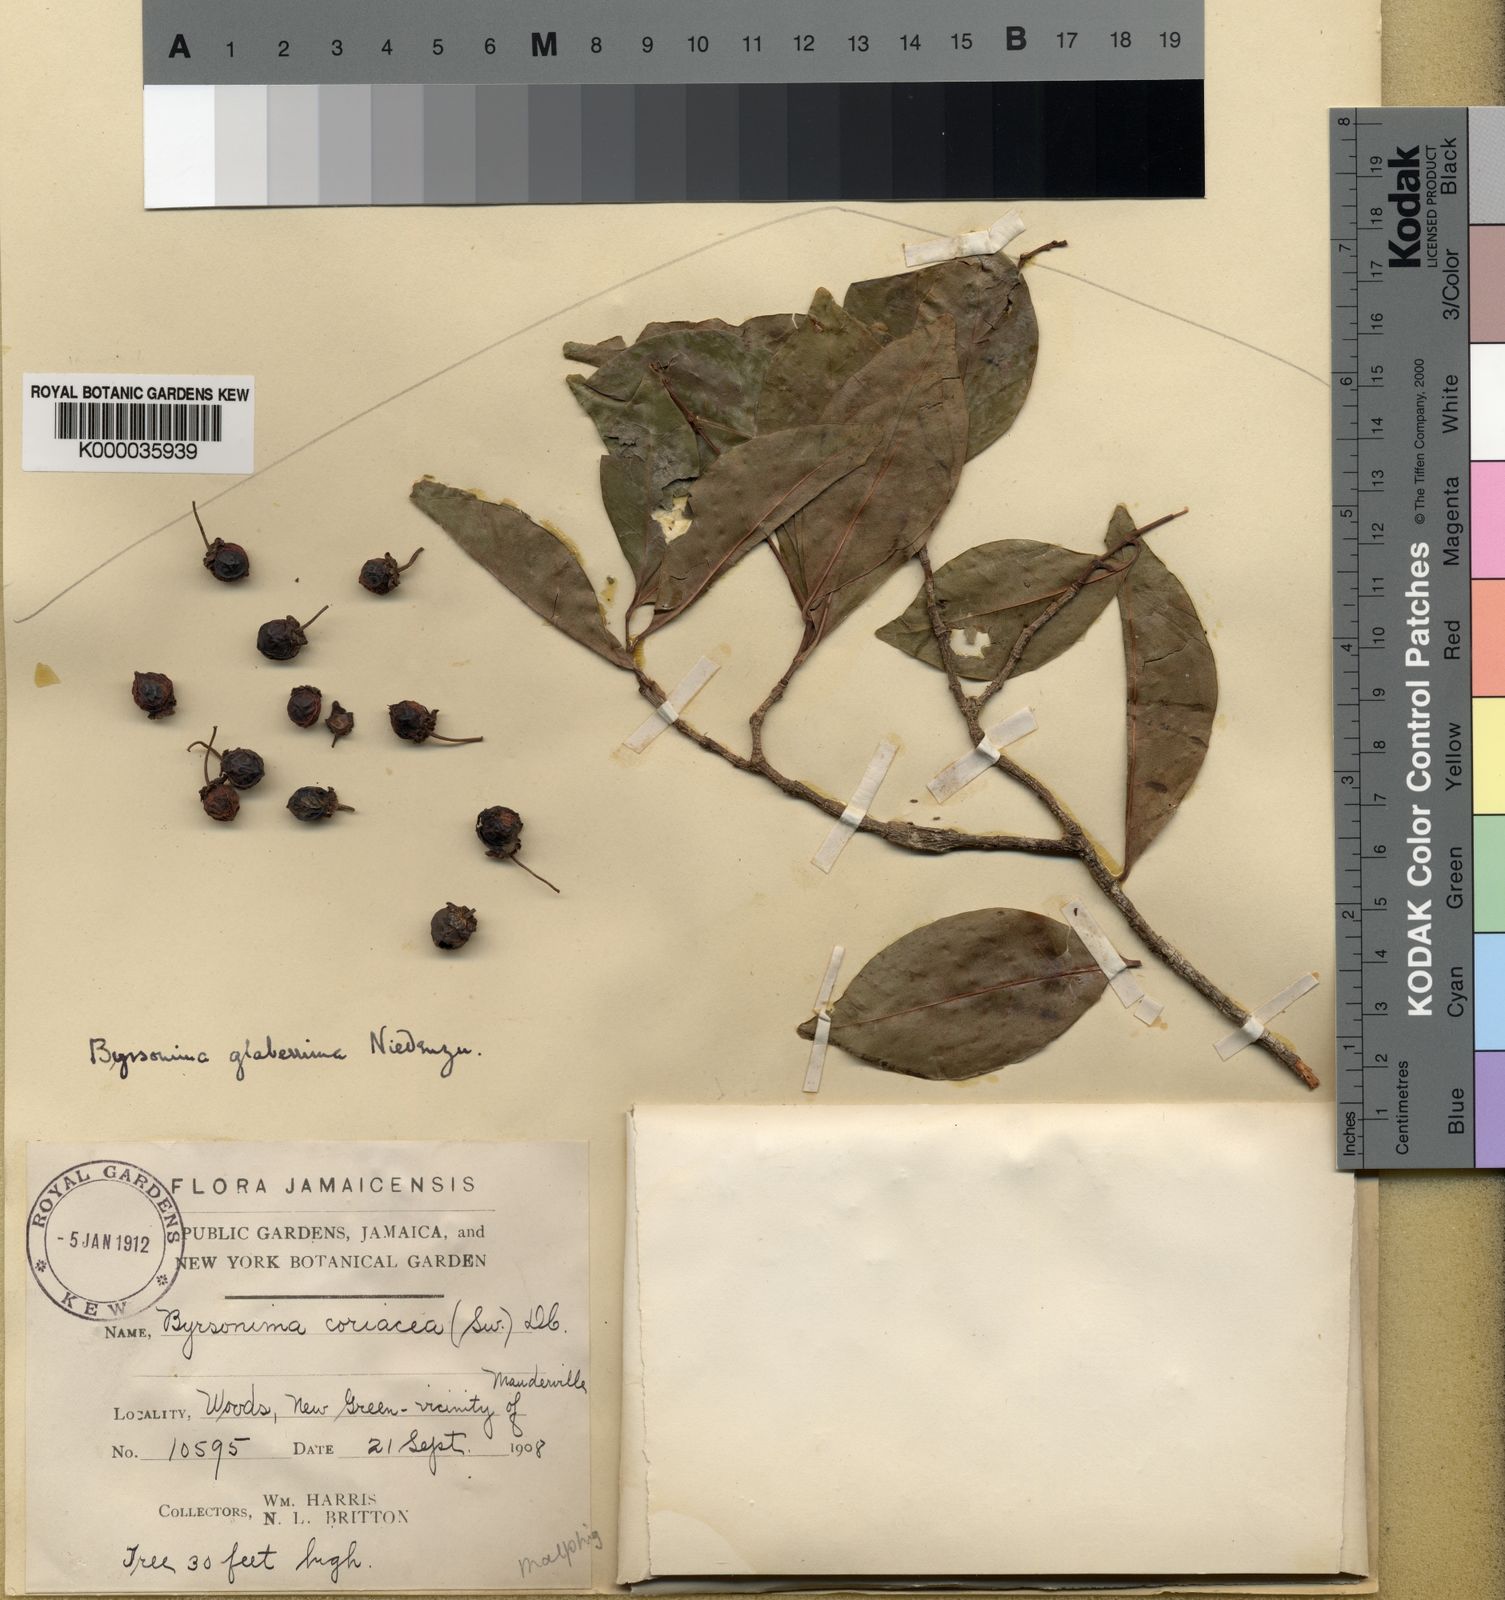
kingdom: Plantae
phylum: Tracheophyta
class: Magnoliopsida
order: Malpighiales
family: Malpighiaceae
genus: Byrsonima
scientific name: Byrsonima trinitensis
